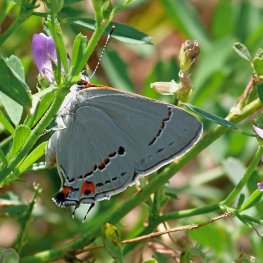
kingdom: Animalia
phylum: Arthropoda
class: Insecta
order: Lepidoptera
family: Lycaenidae
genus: Strymon
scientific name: Strymon melinus
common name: Gray Hairstreak
